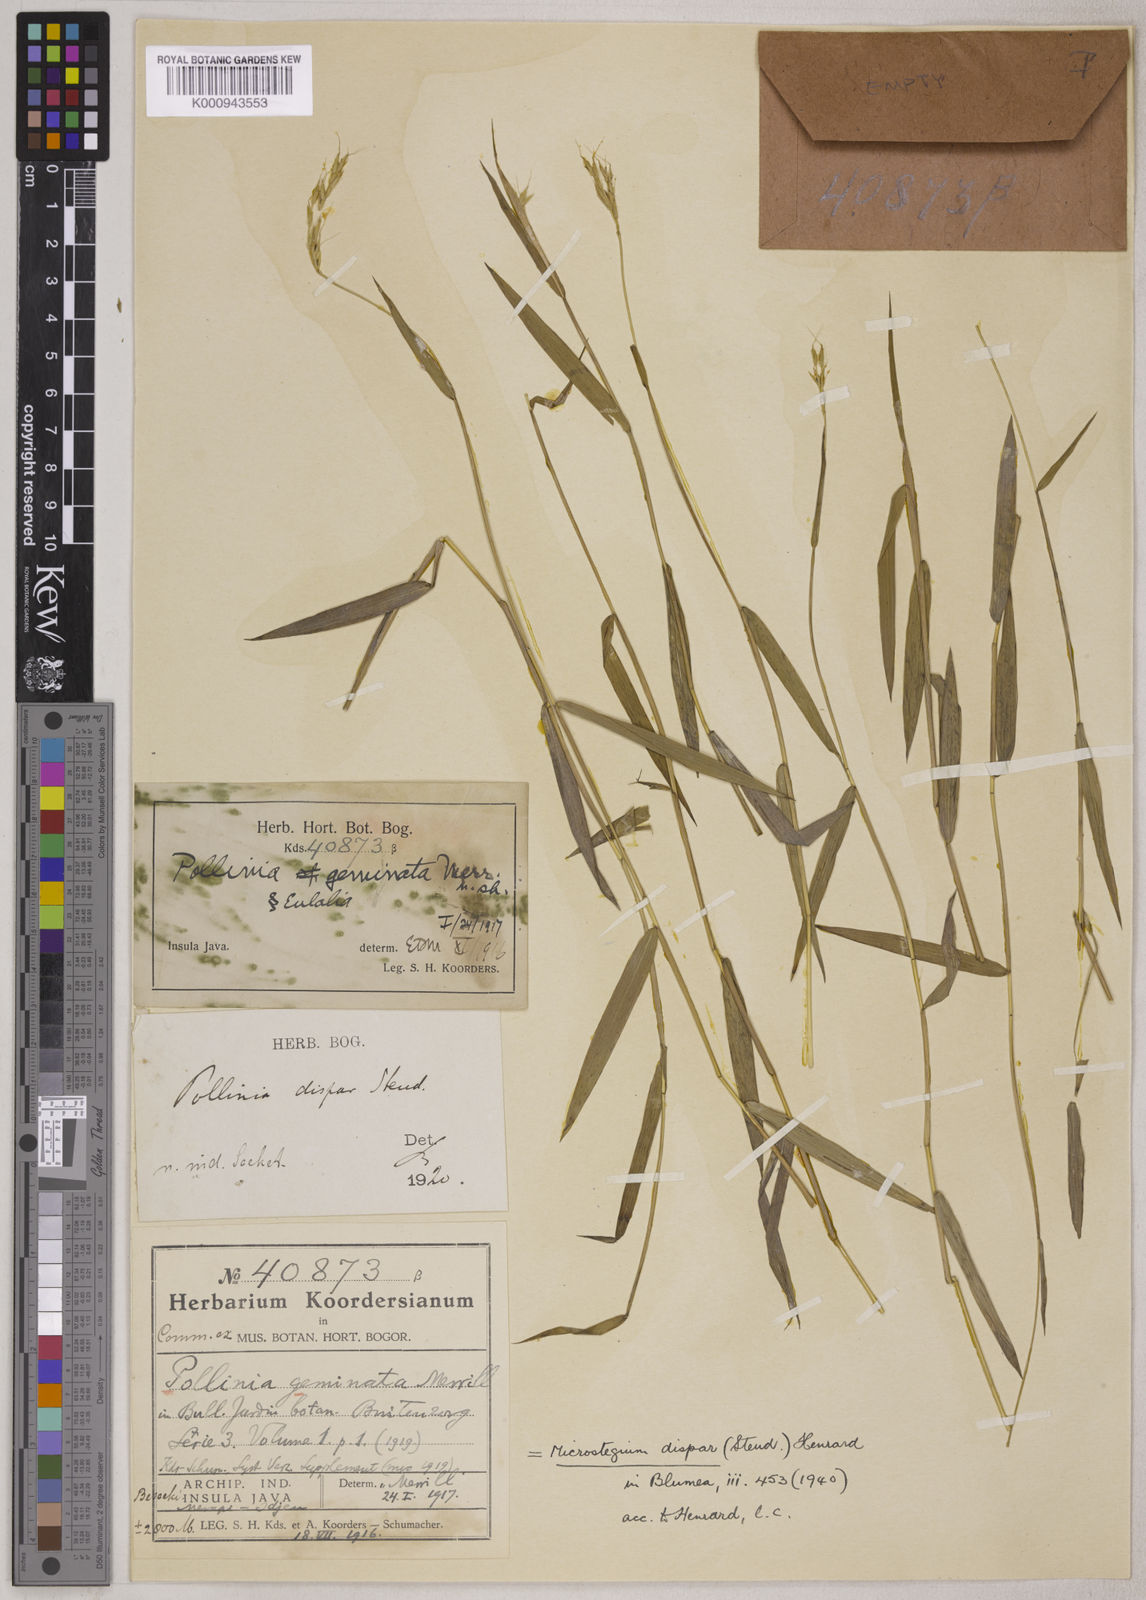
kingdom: Plantae
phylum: Tracheophyta
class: Liliopsida
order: Poales
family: Poaceae
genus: Microstegium
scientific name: Microstegium dispar
